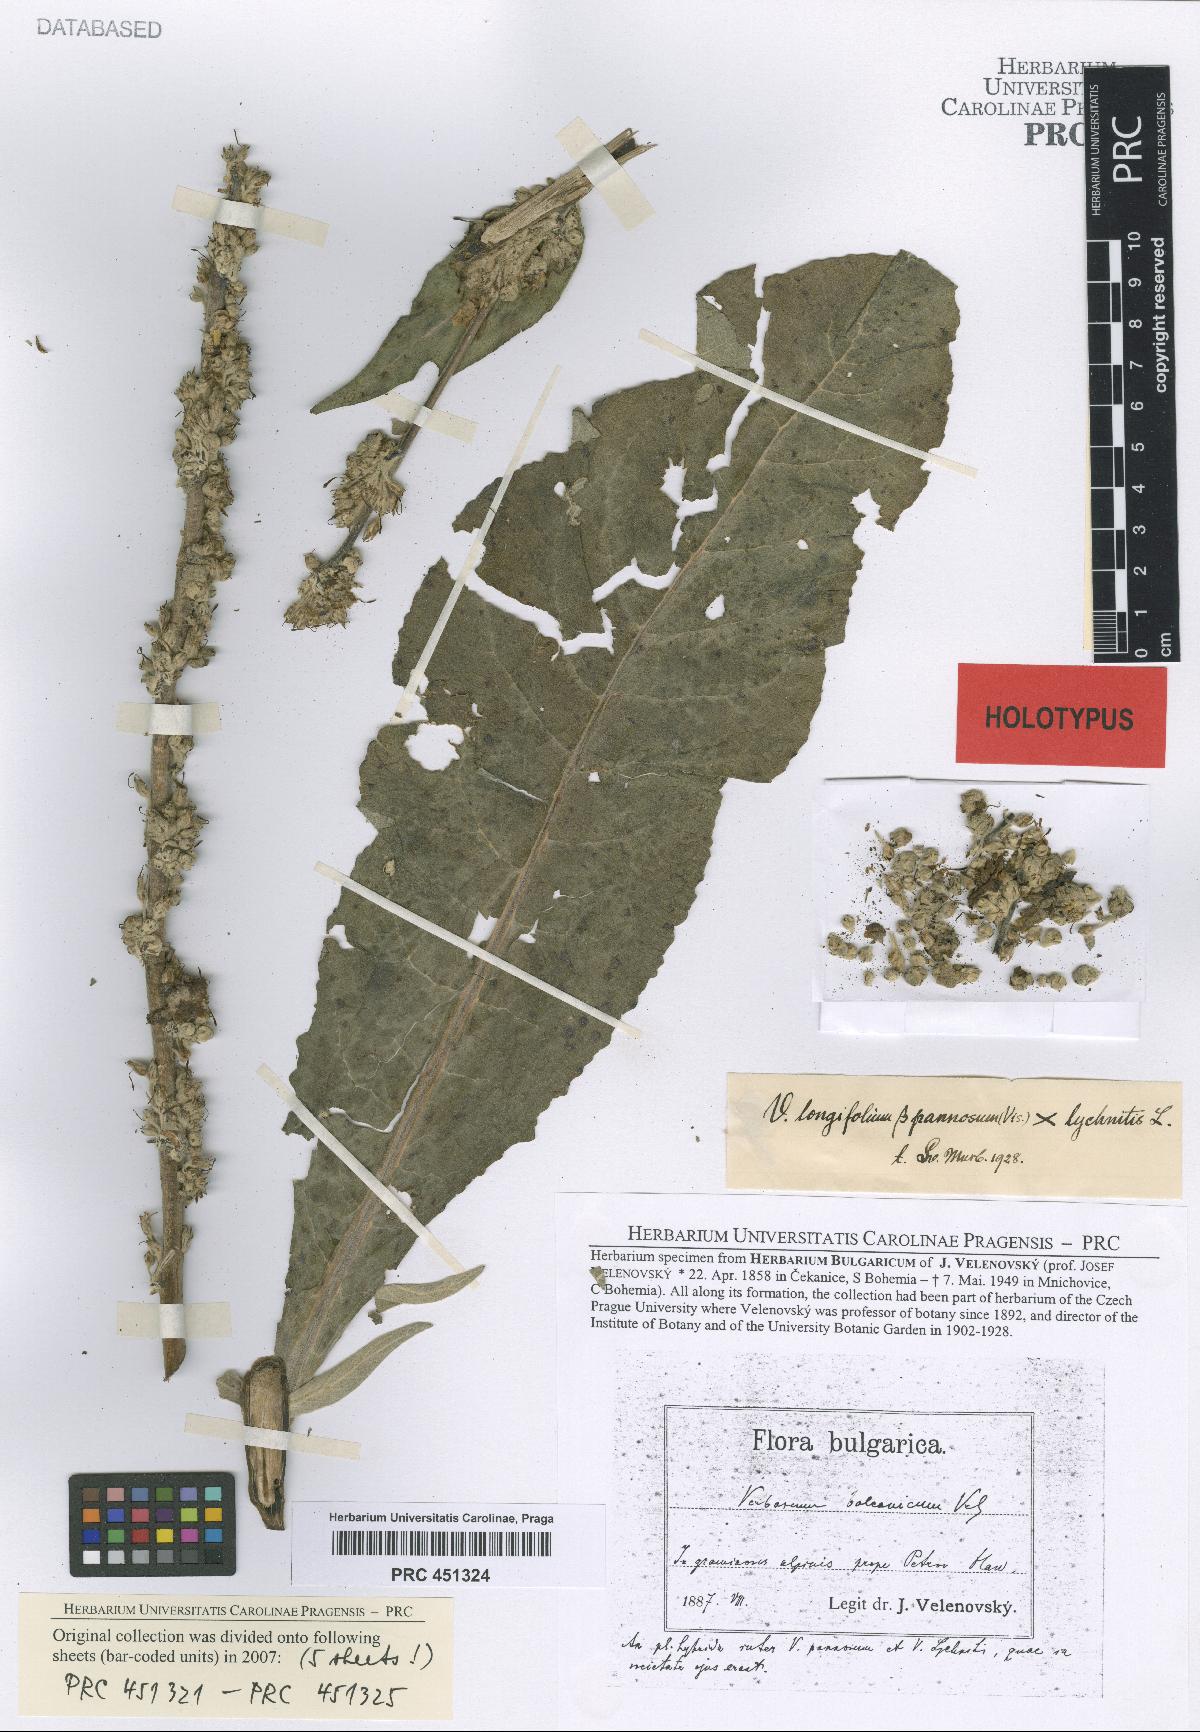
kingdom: Plantae
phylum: Tracheophyta
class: Magnoliopsida
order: Lamiales
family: Scrophulariaceae
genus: Verbascum
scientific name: Verbascum balcanicum
